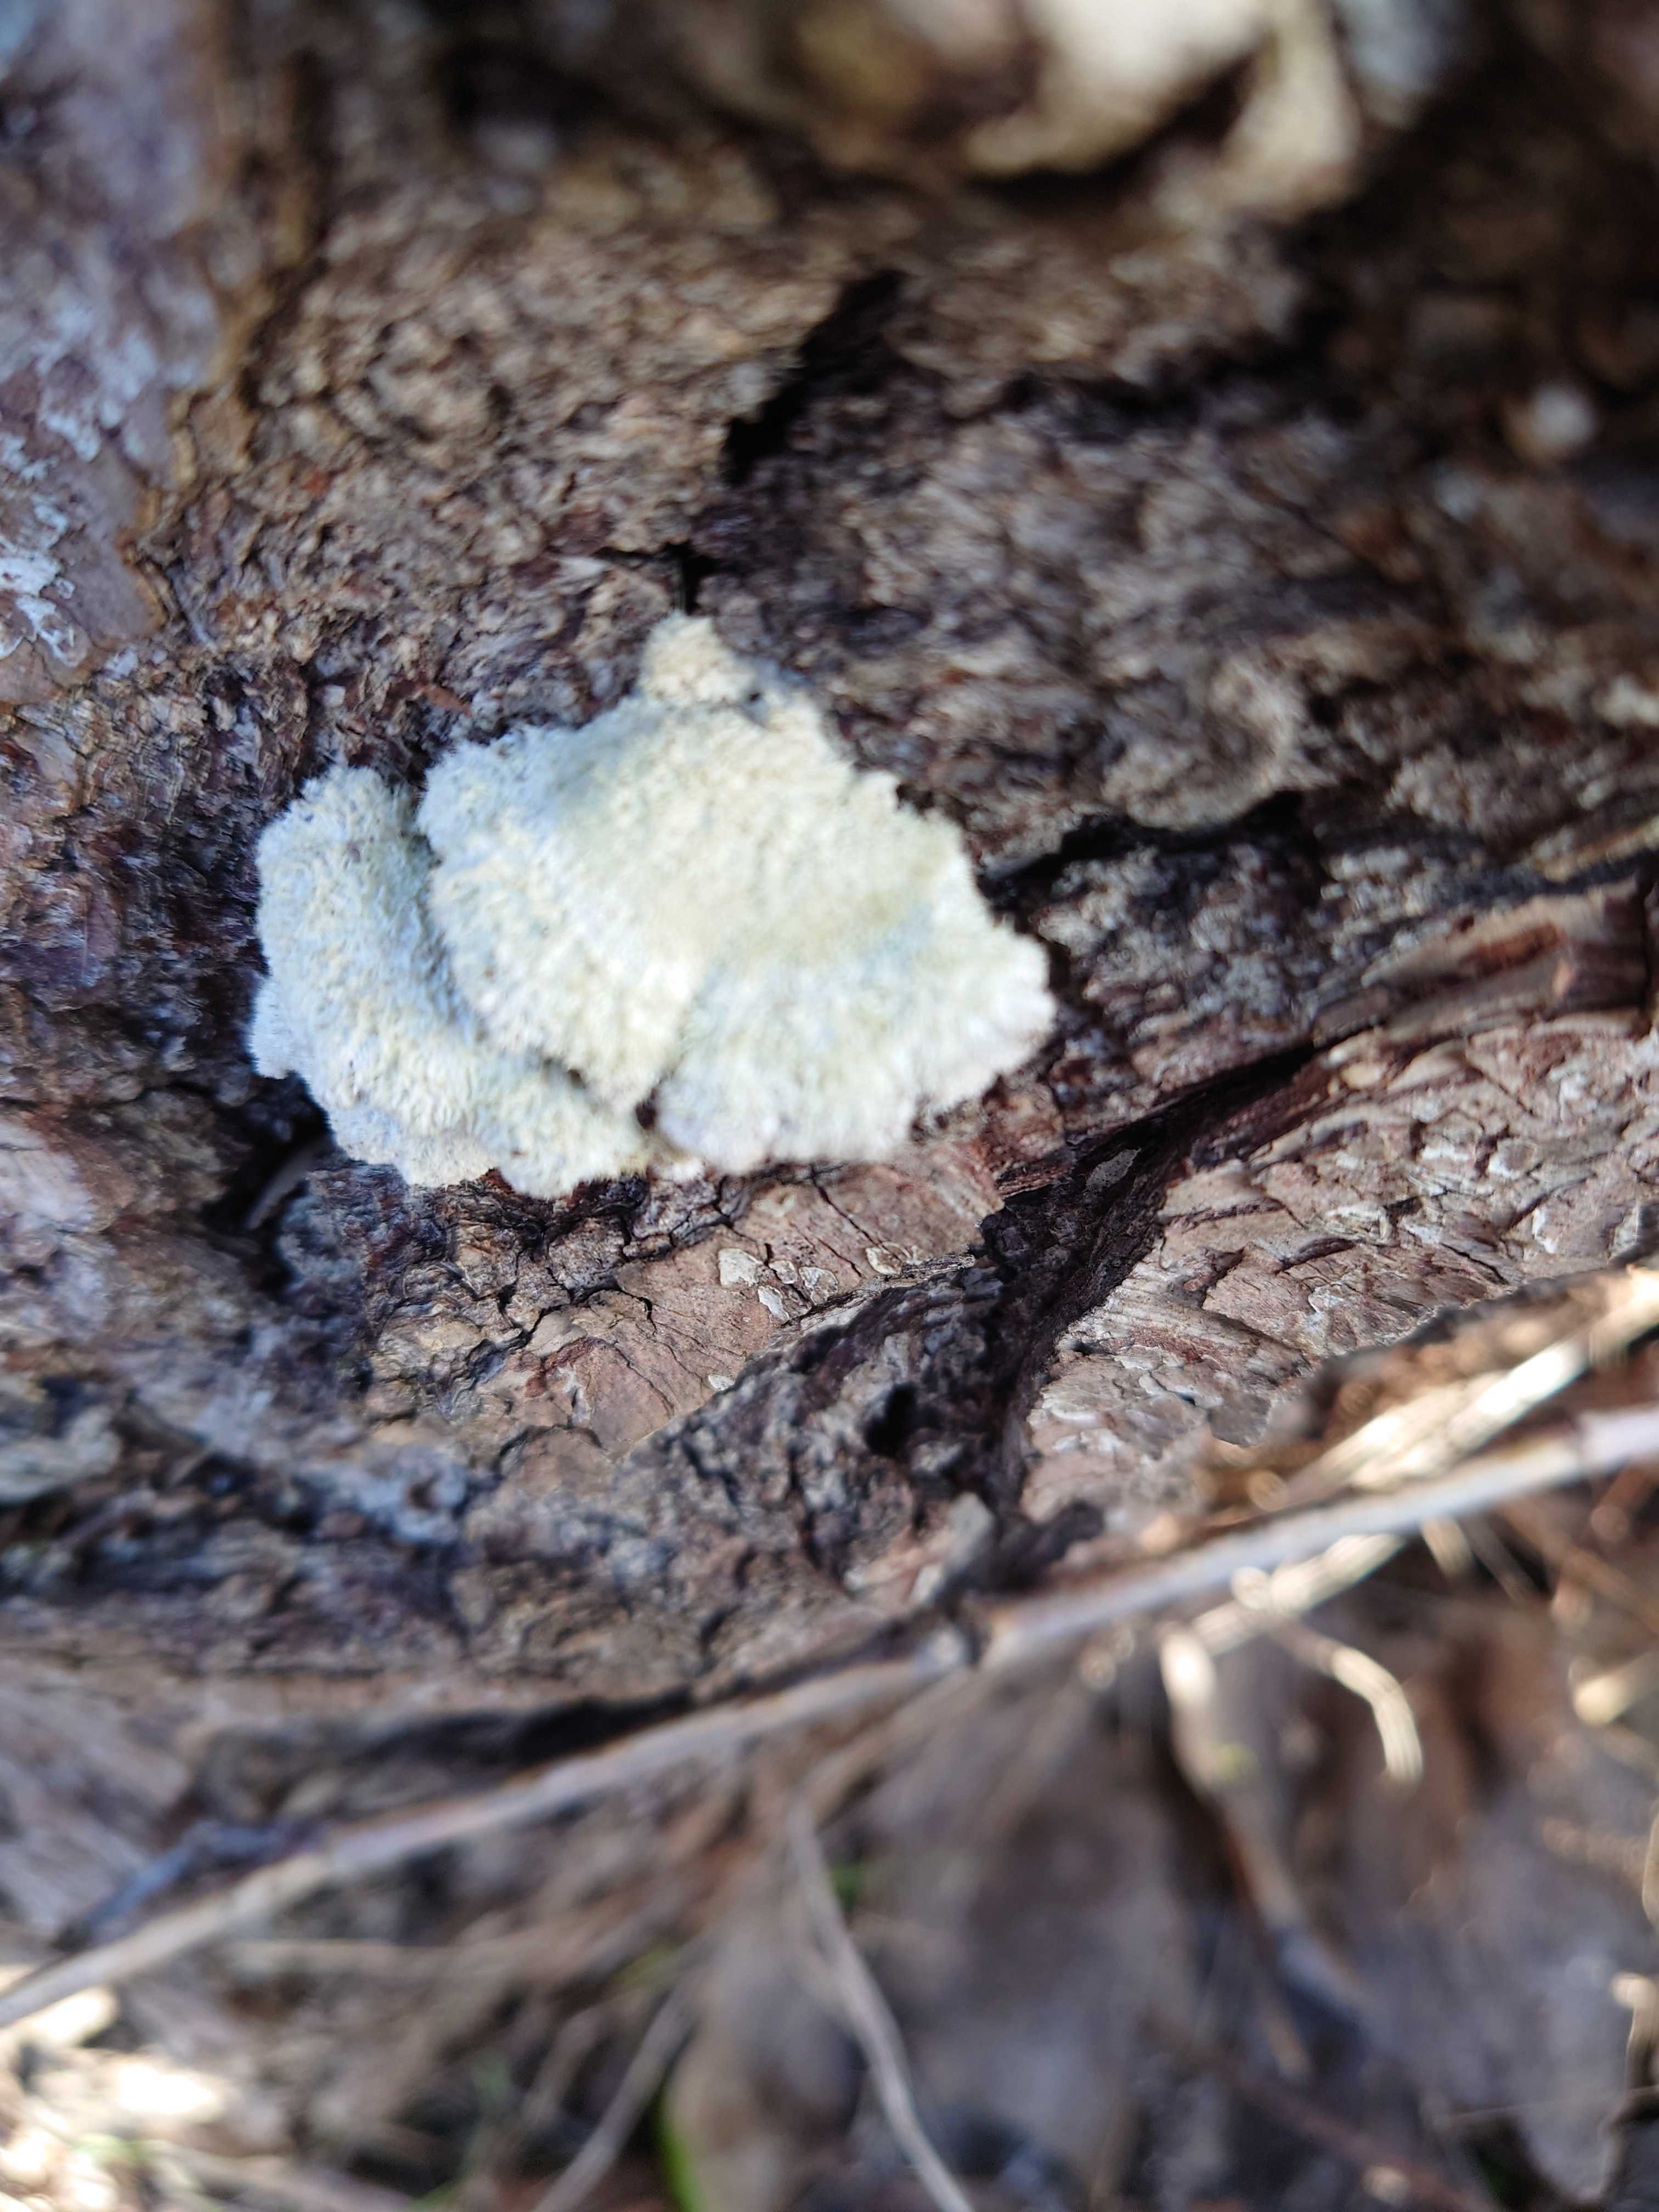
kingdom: Fungi
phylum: Basidiomycota
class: Agaricomycetes
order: Agaricales
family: Schizophyllaceae
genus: Schizophyllum
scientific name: Schizophyllum commune
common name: kløvblad
